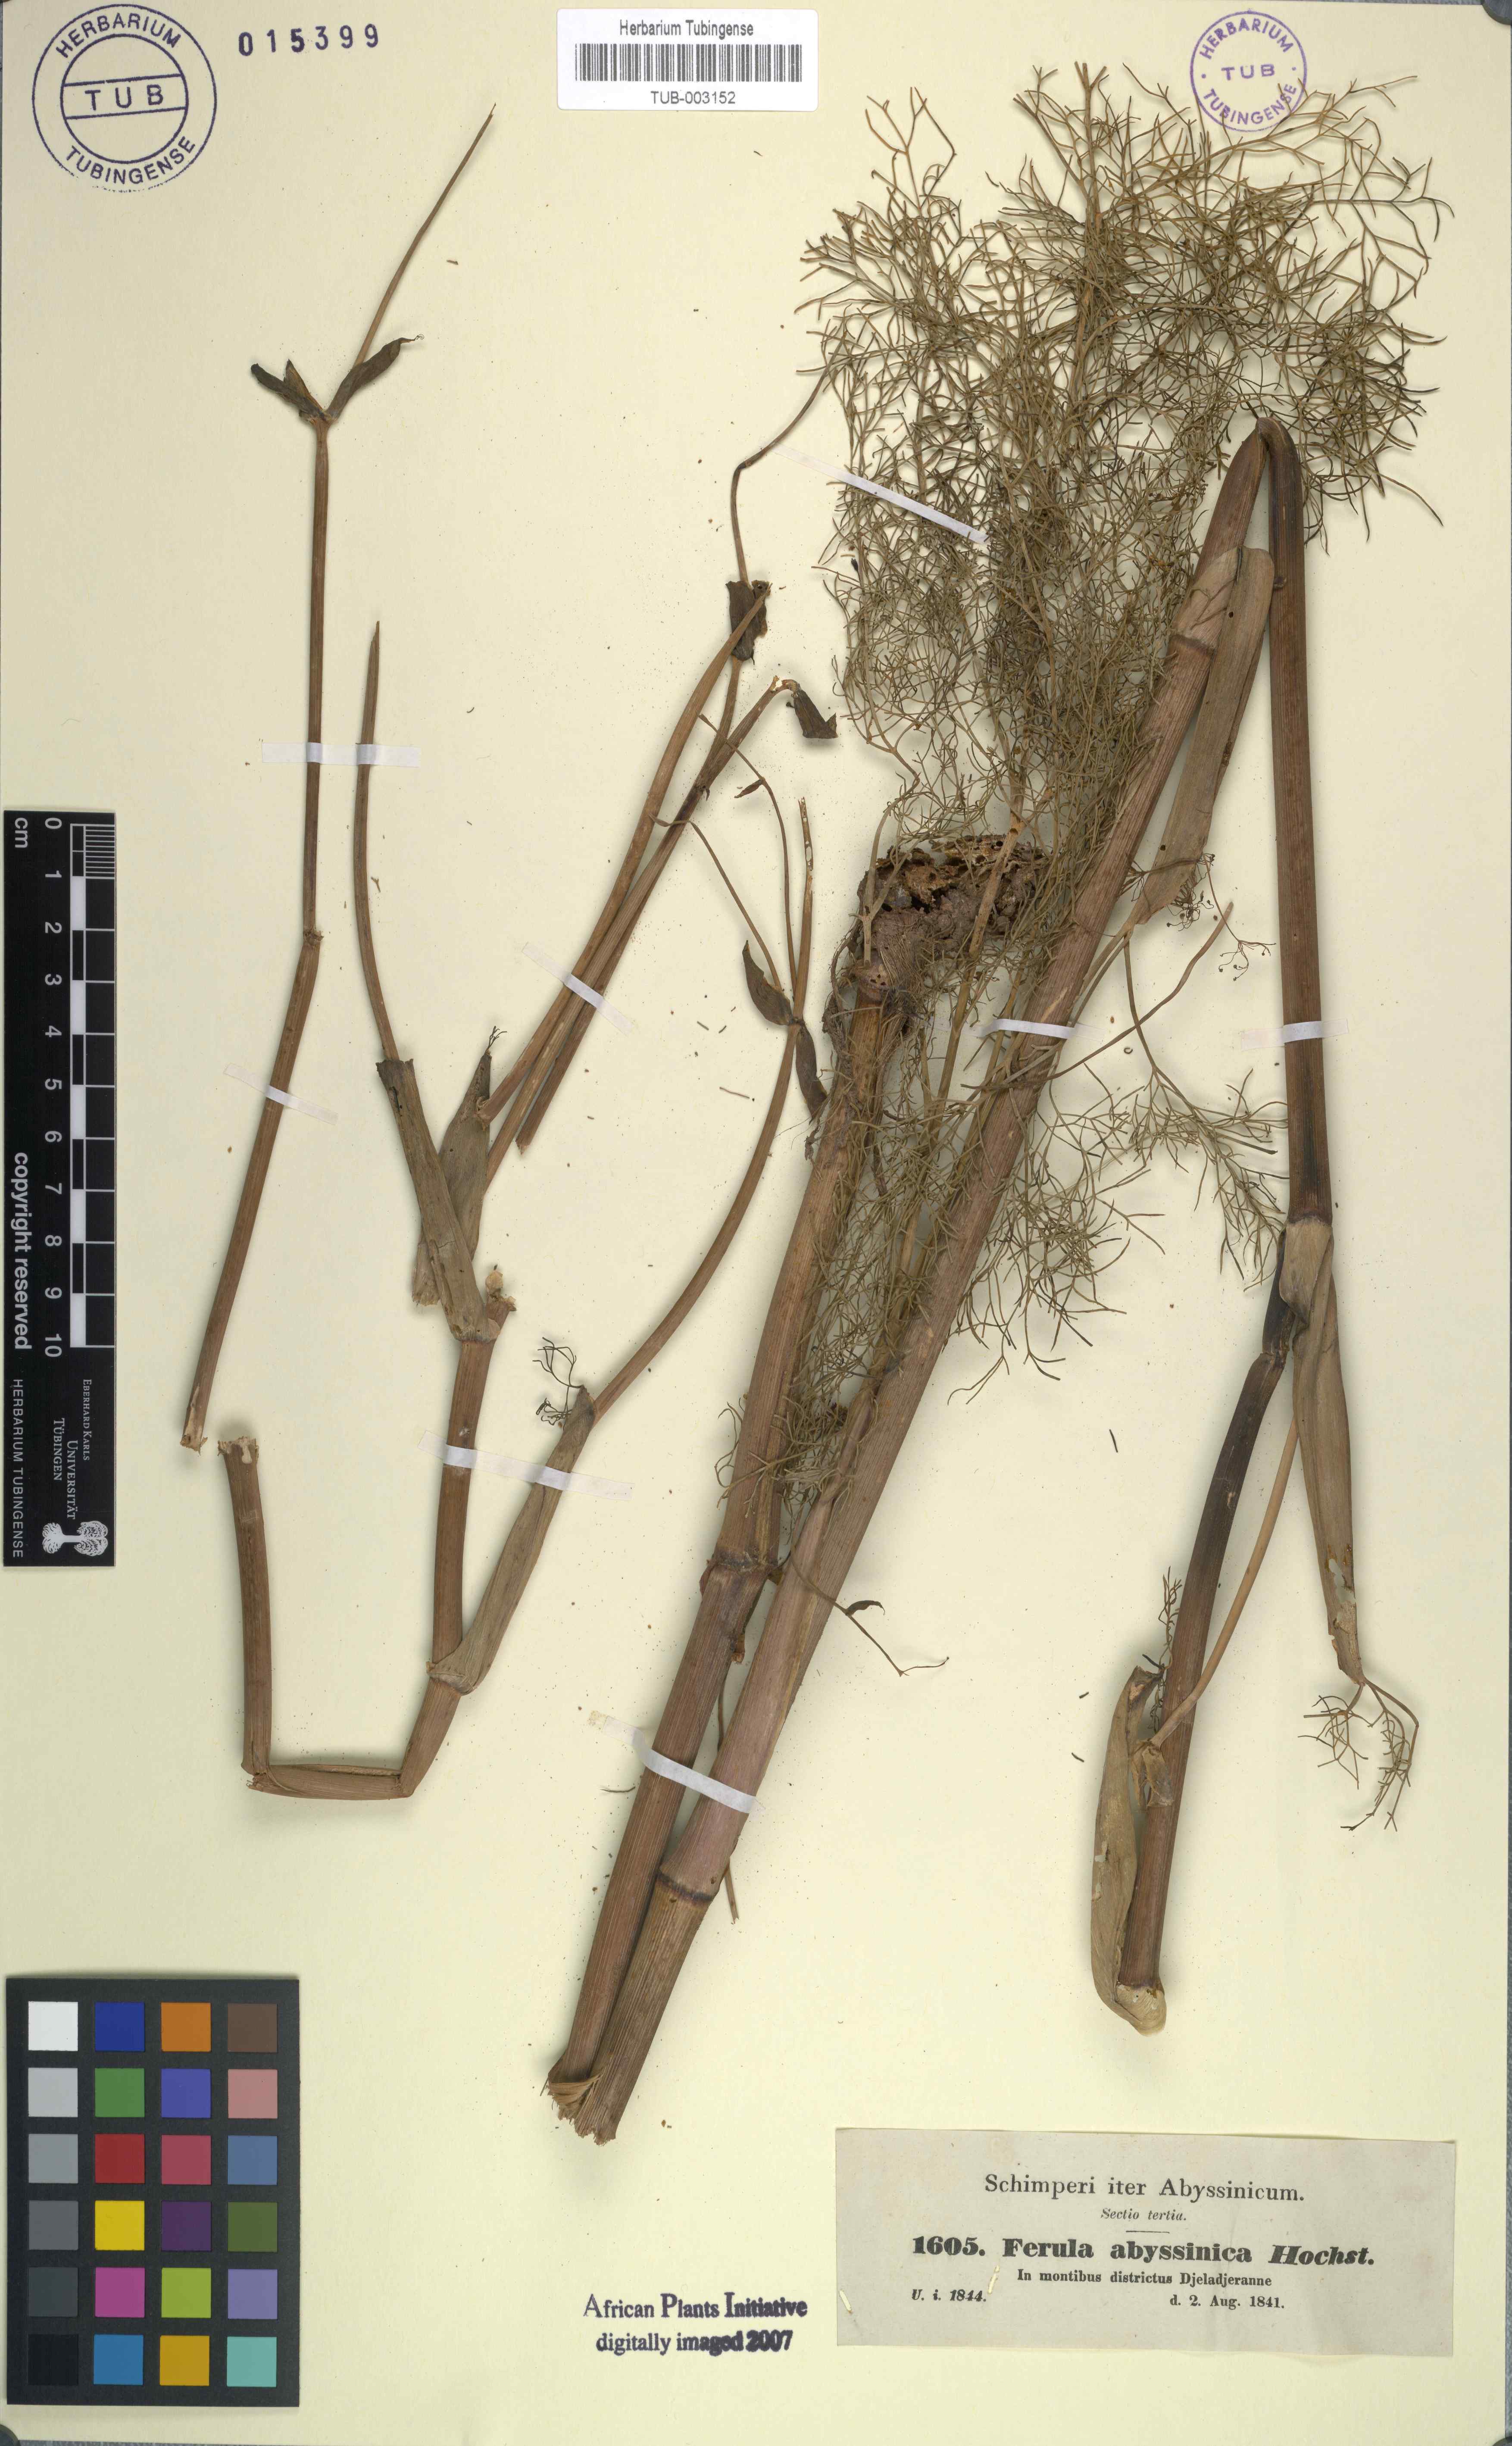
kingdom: Plantae
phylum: Tracheophyta
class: Magnoliopsida
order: Apiales
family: Apiaceae
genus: Ferula
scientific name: Ferula communis
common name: Giant fennel
